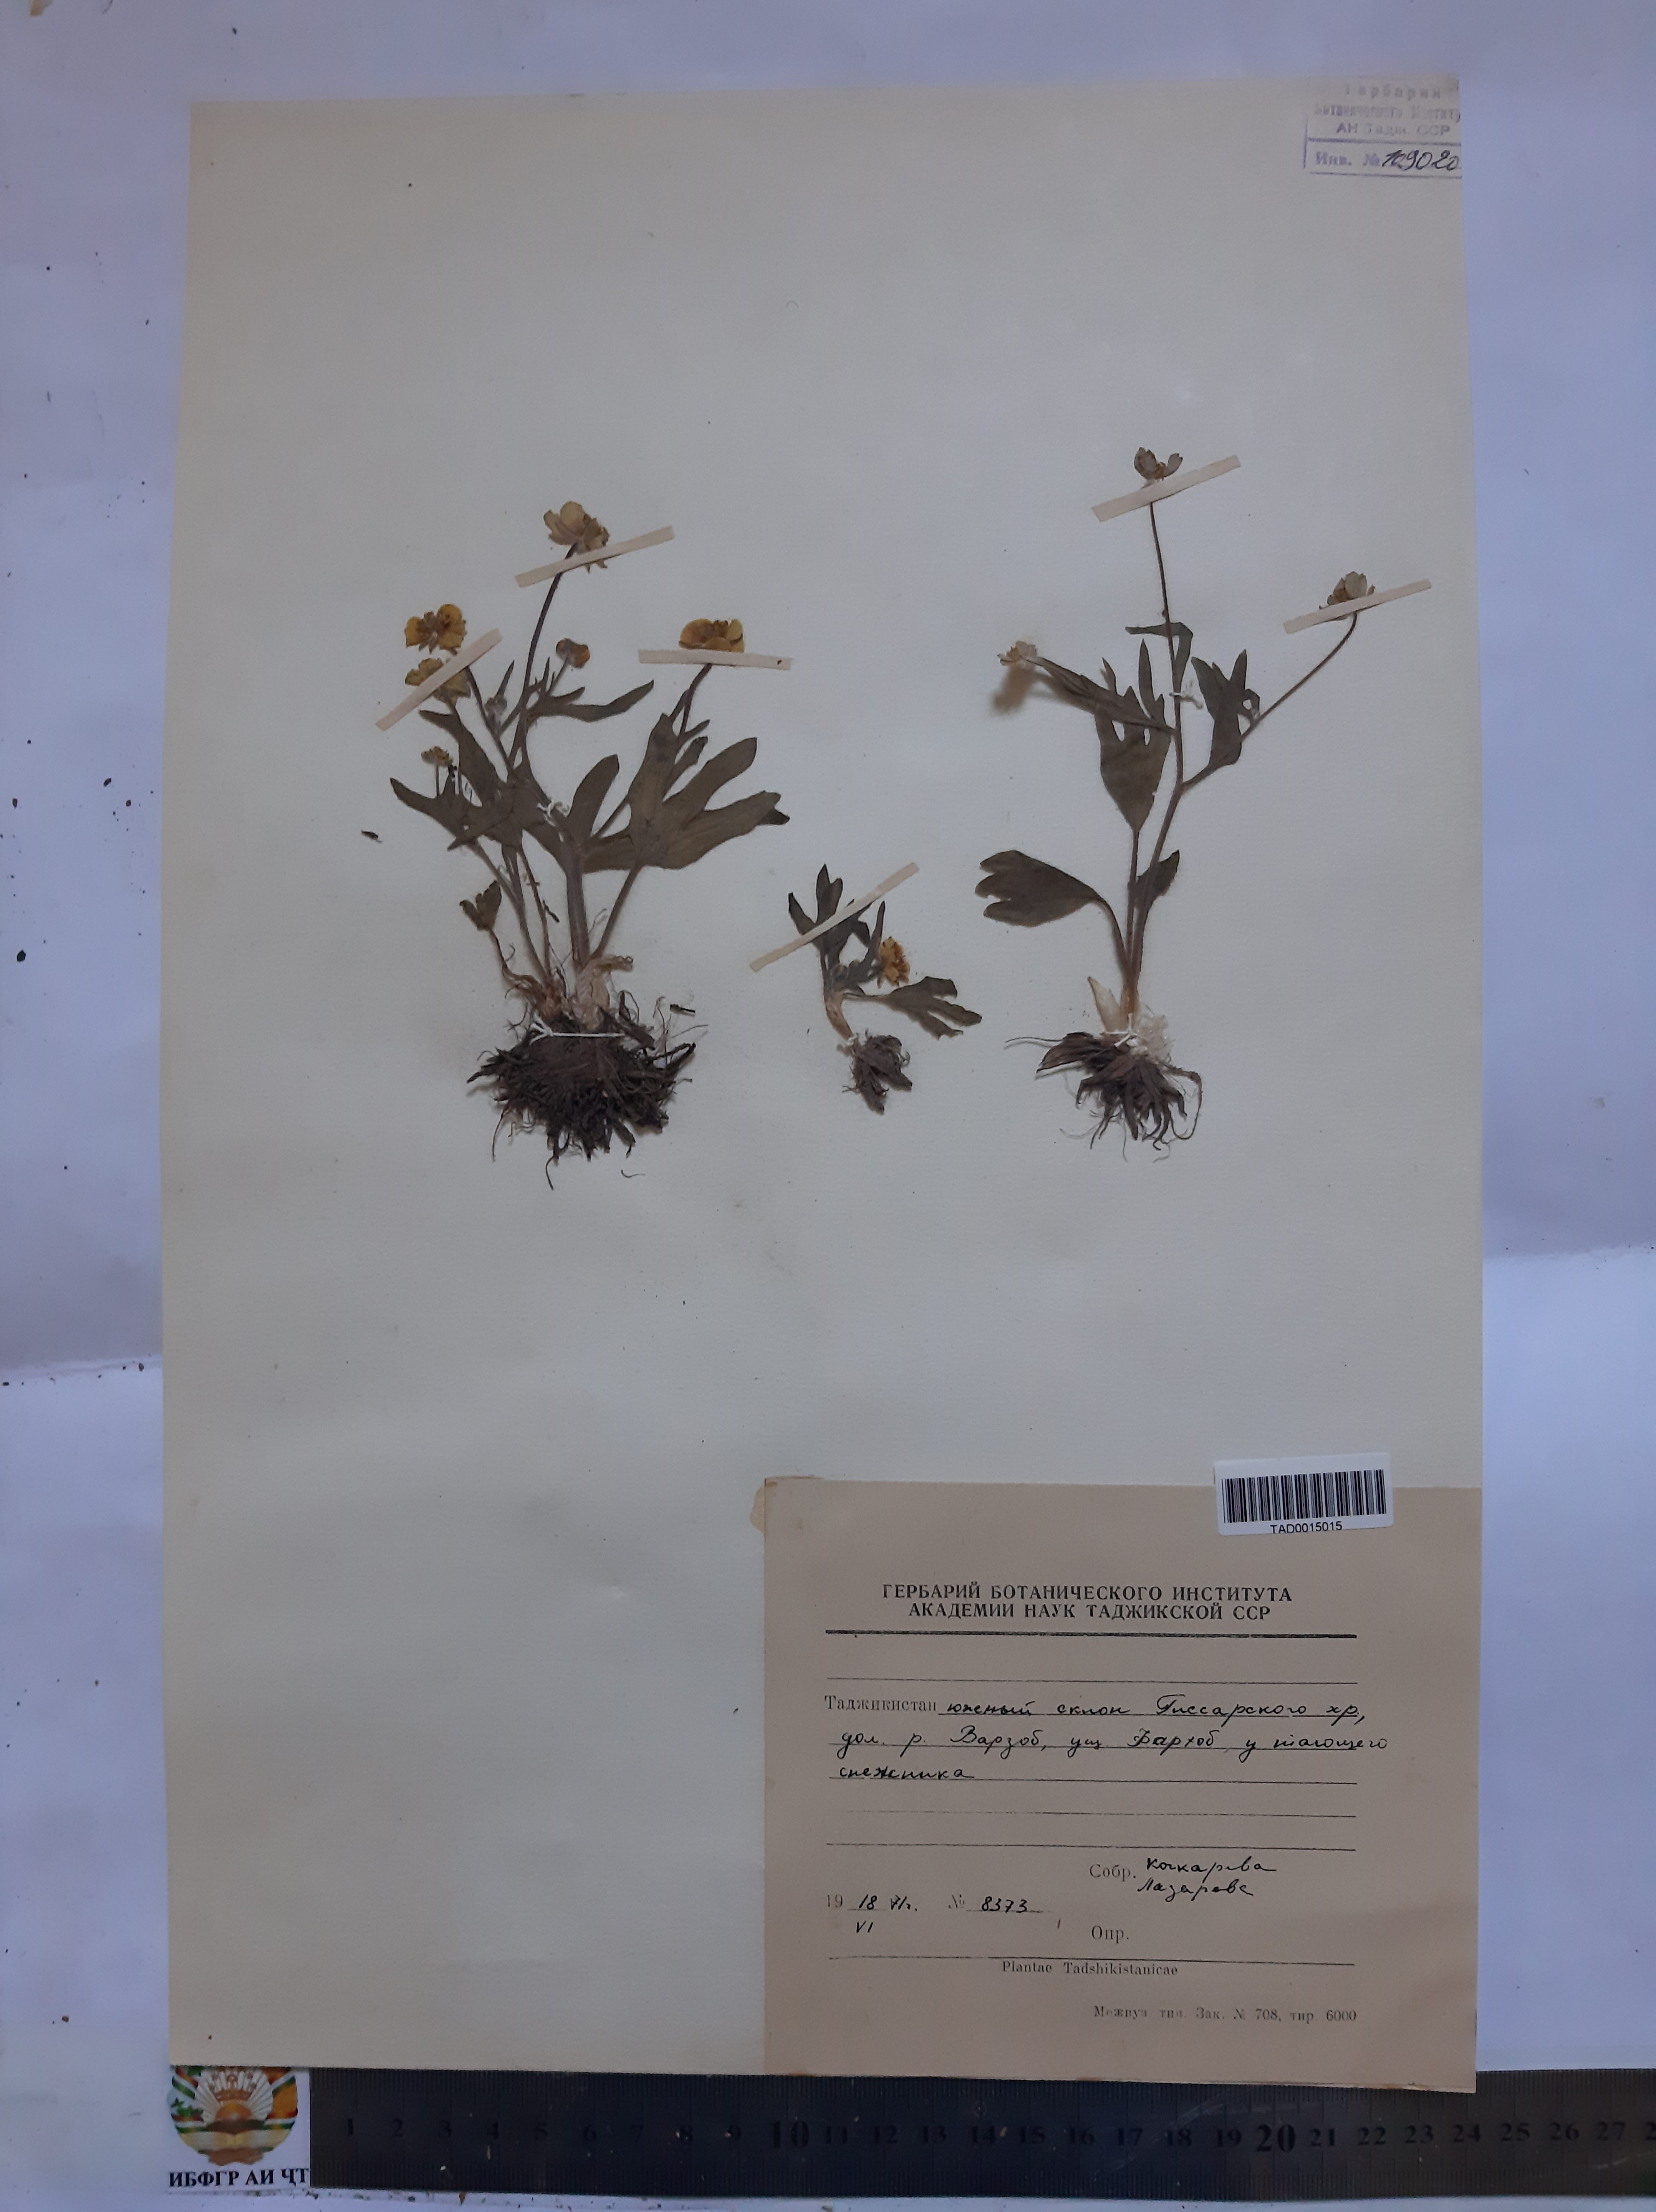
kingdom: Plantae
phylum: Tracheophyta
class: Magnoliopsida
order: Ranunculales
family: Ranunculaceae
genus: Ranunculus
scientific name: Ranunculus paucidentatus
